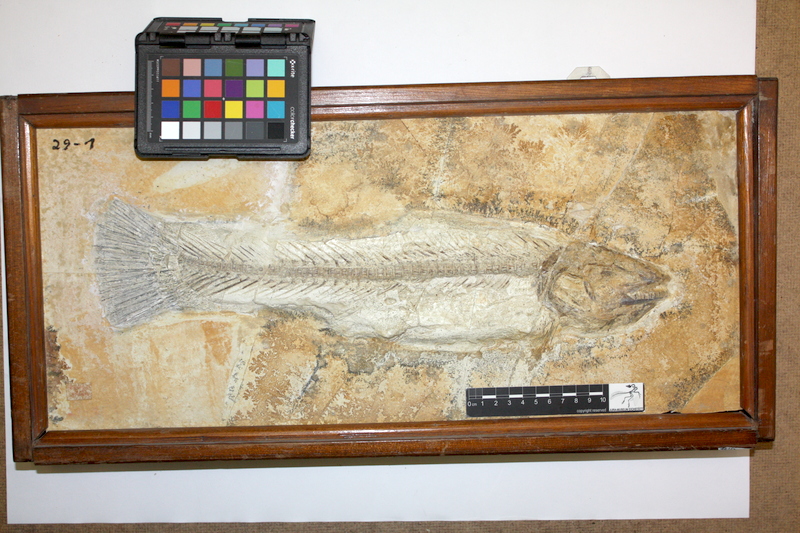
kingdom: Animalia
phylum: Chordata
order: Amiiformes
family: Amiidae
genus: Amiopsis
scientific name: Amiopsis lepidota
